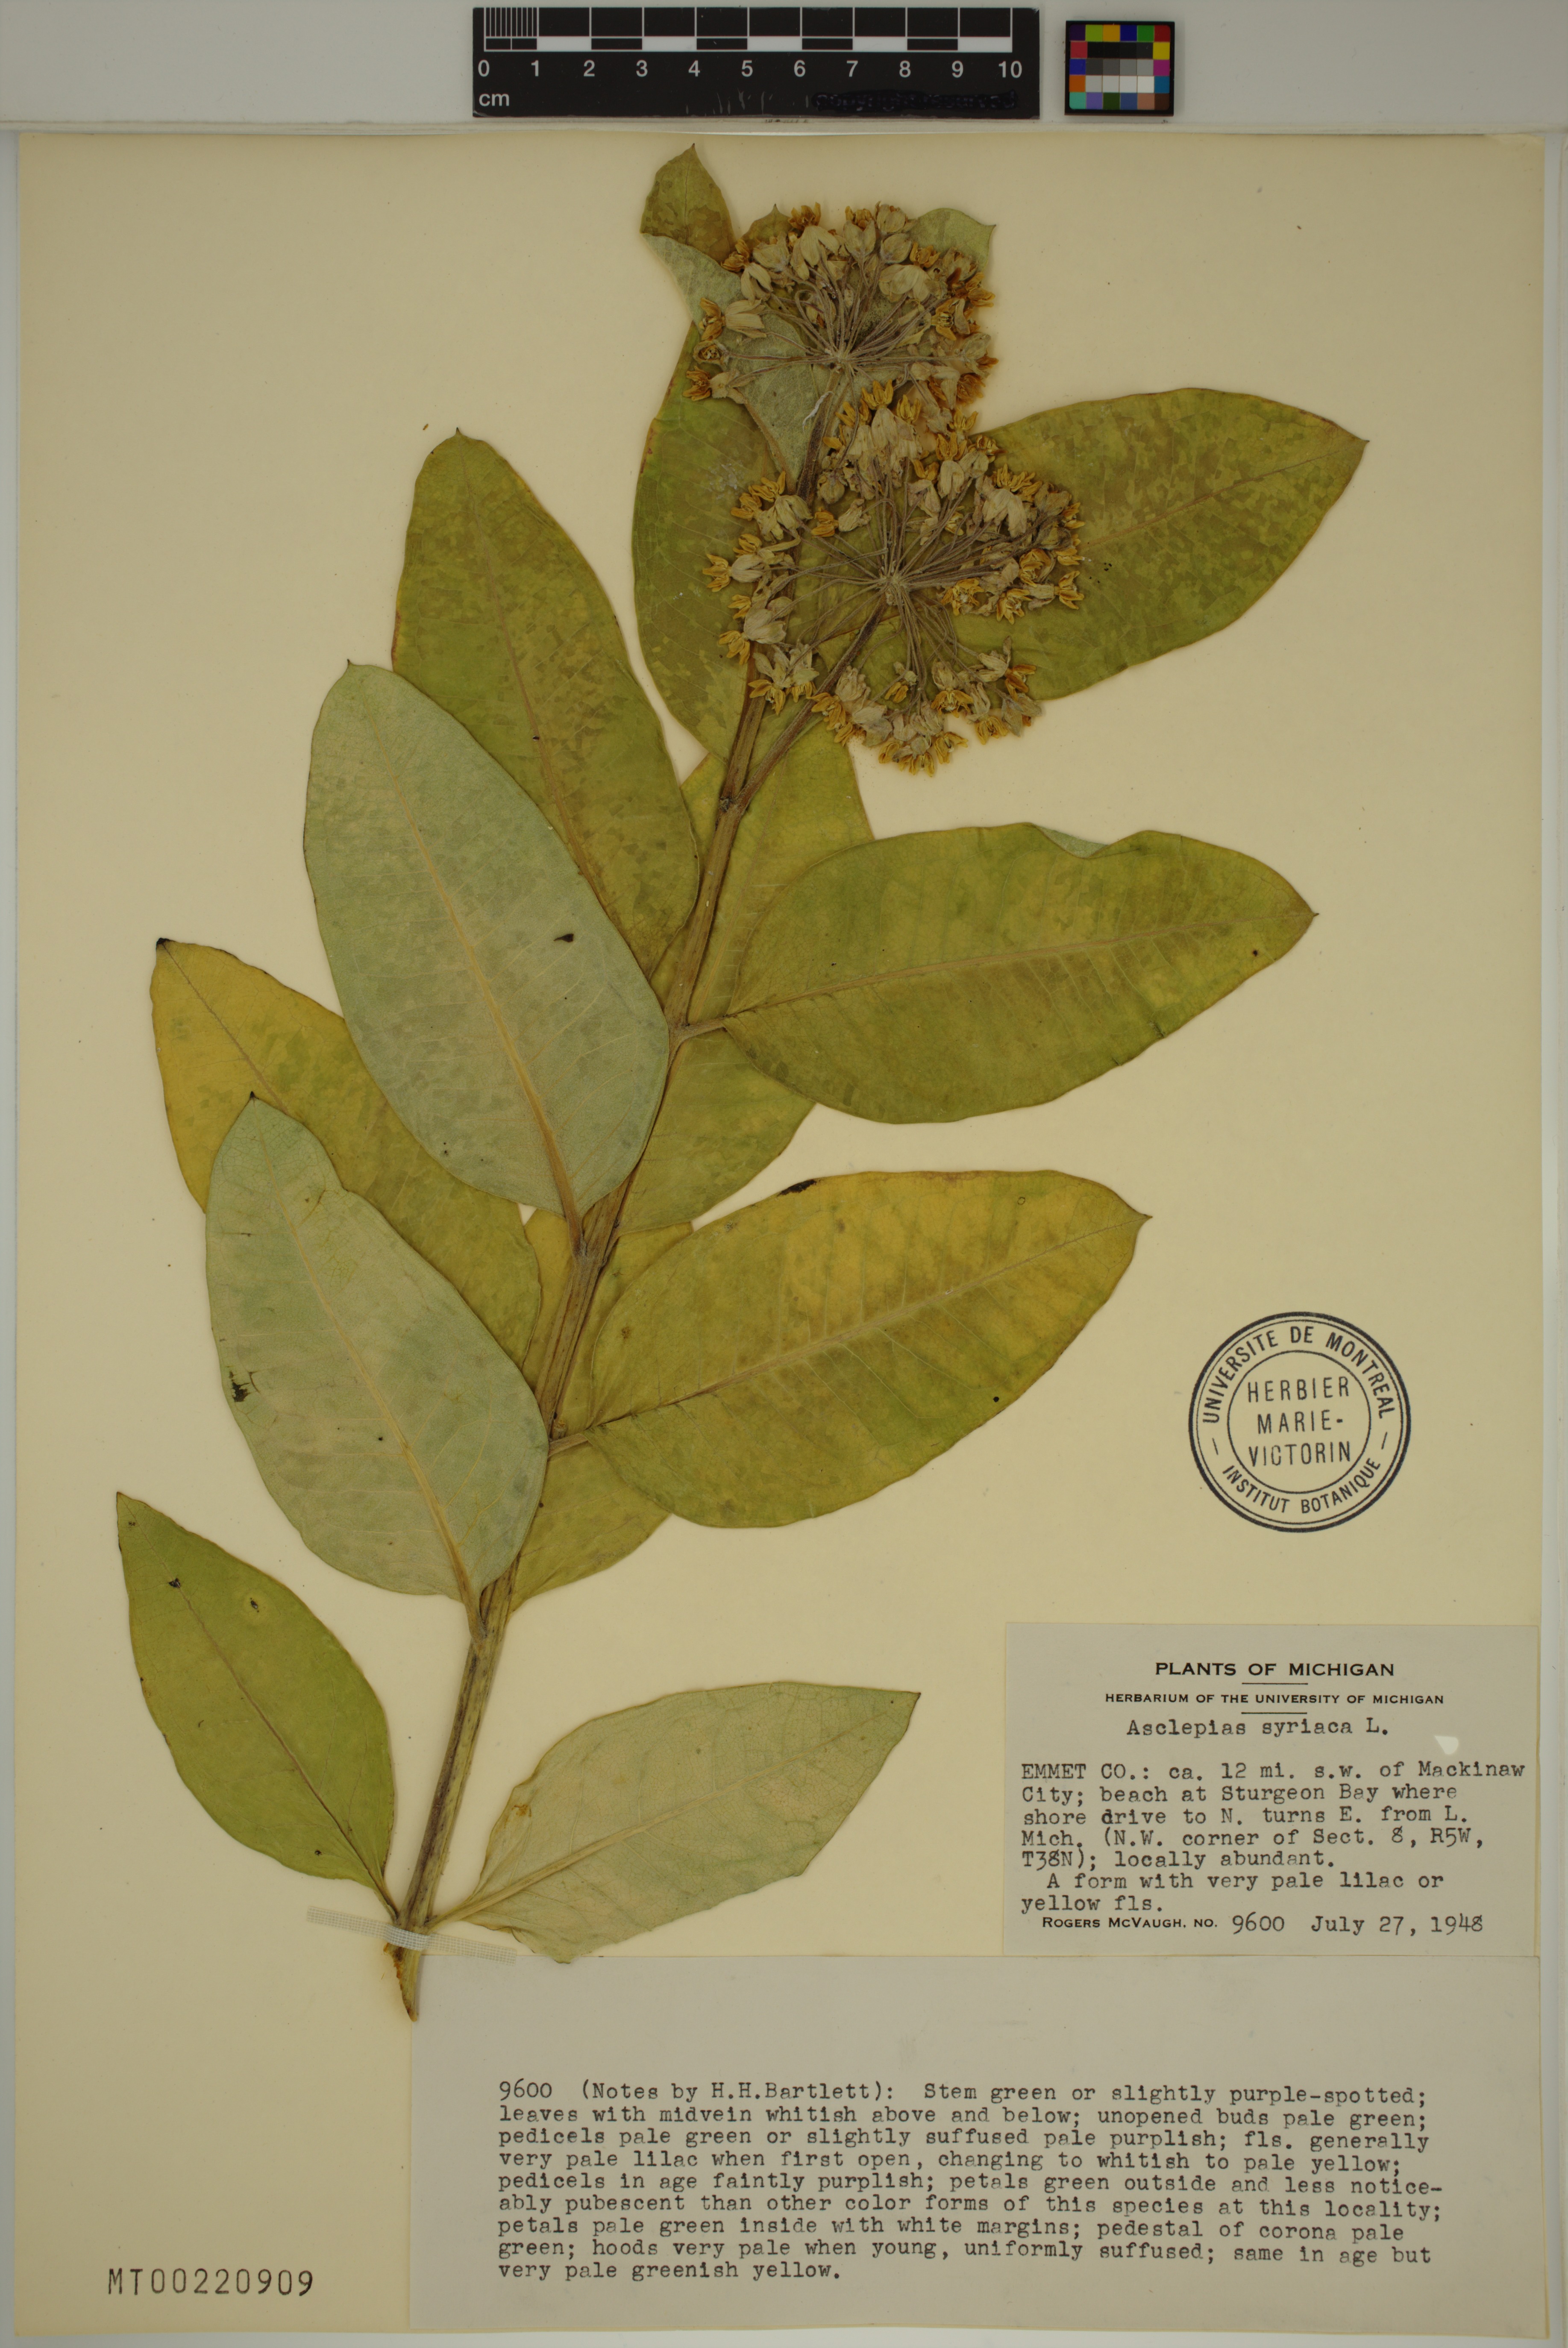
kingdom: Plantae
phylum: Tracheophyta
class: Magnoliopsida
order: Gentianales
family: Apocynaceae
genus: Asclepias
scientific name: Asclepias syriaca
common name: Common milkweed
